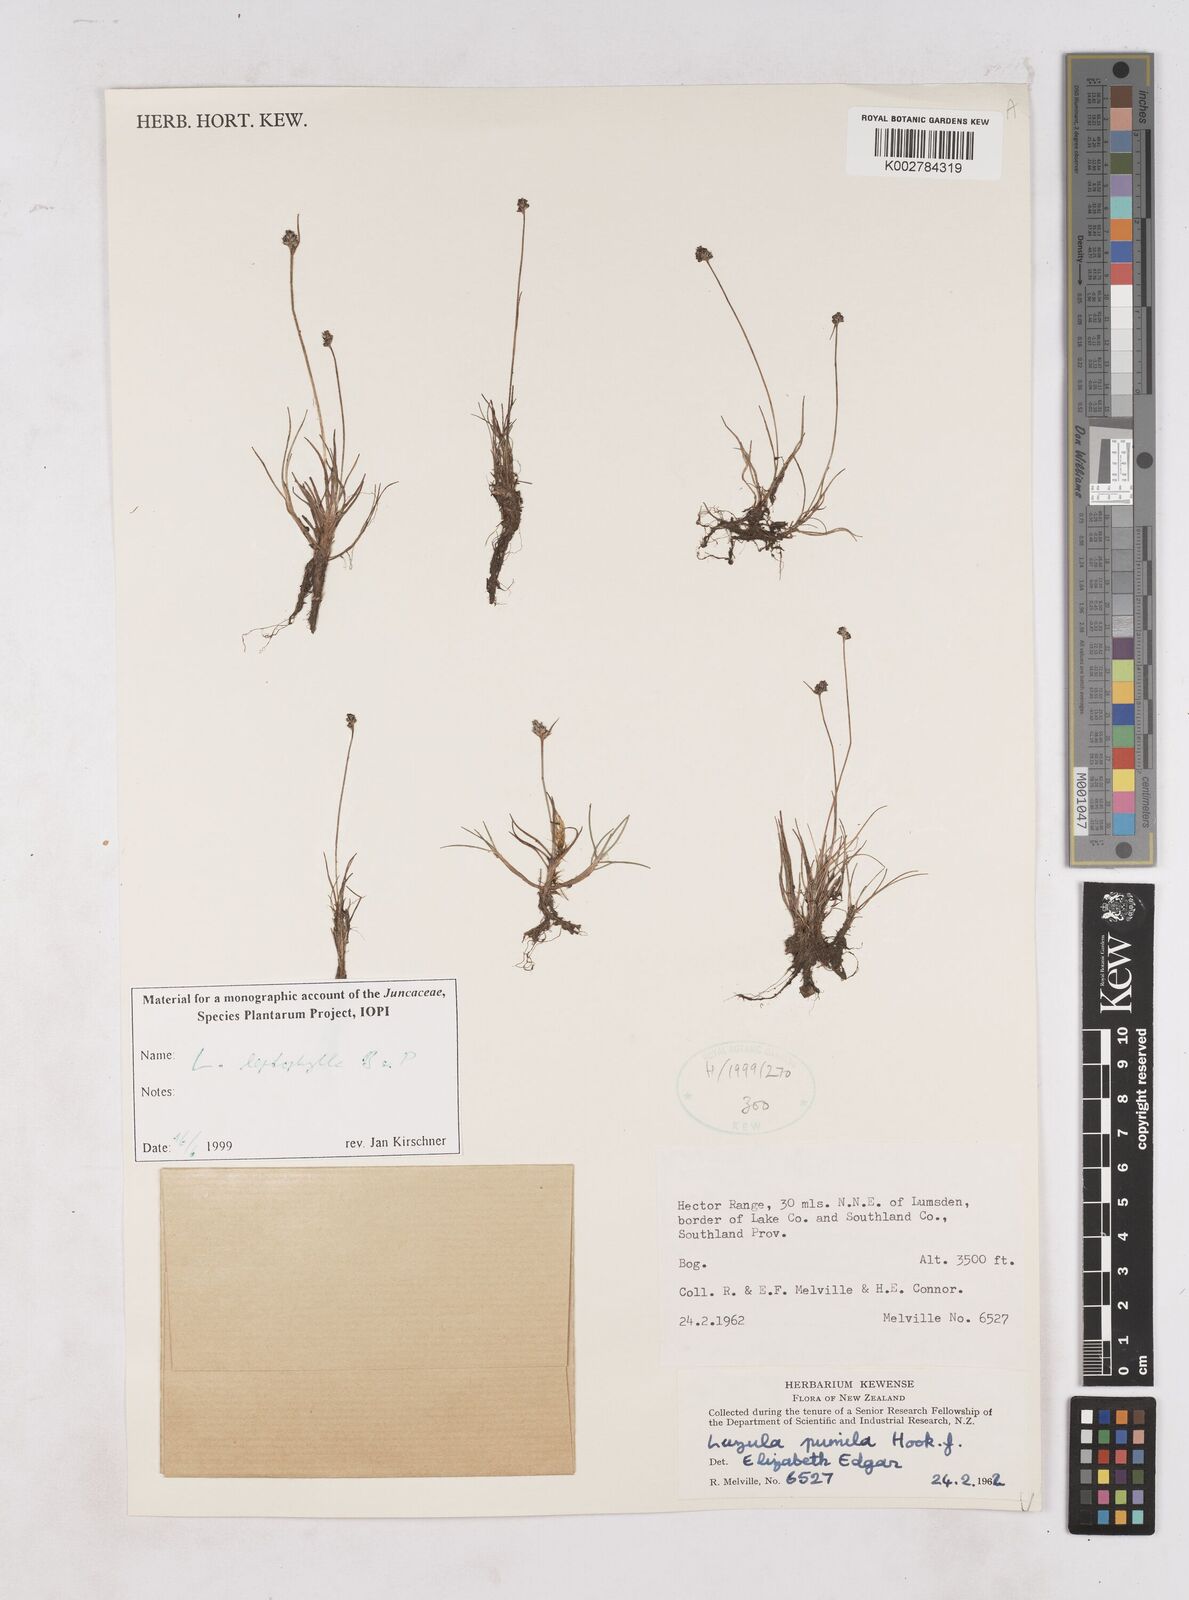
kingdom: Plantae
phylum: Tracheophyta
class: Liliopsida
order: Poales
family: Juncaceae
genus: Luzula
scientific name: Luzula leptophylla
